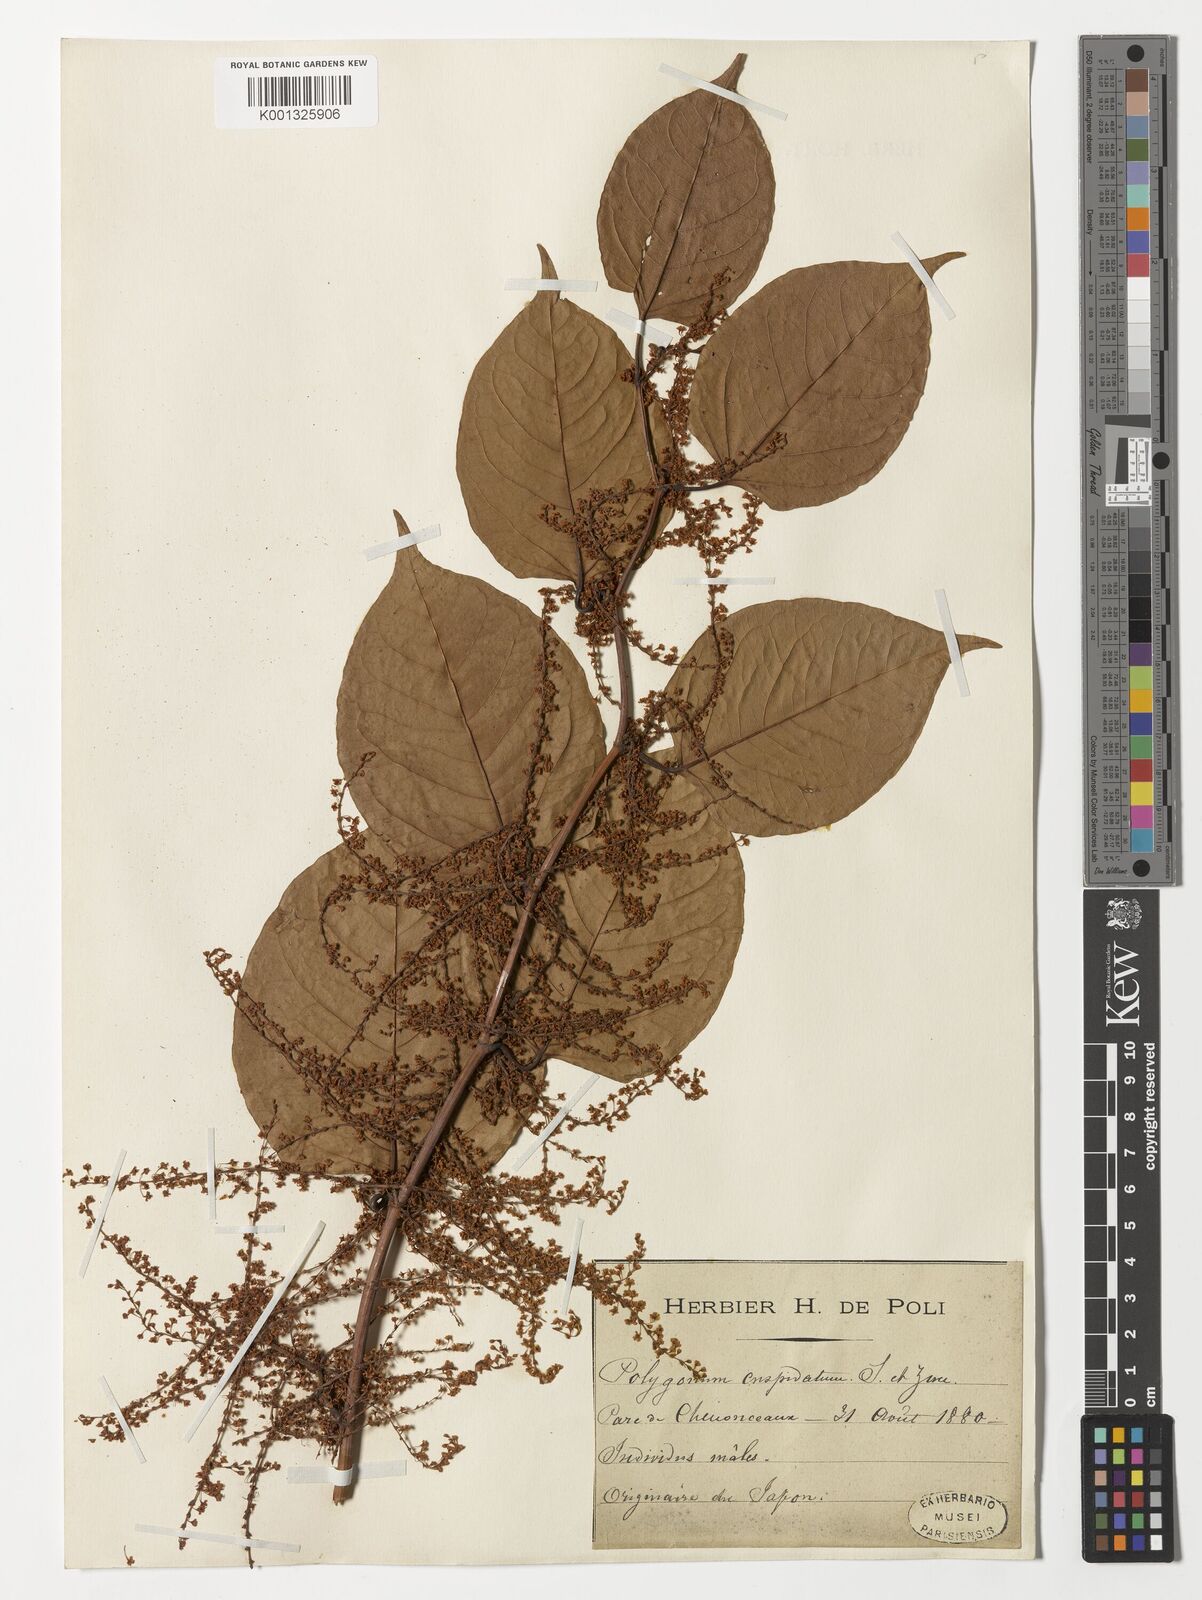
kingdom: Plantae
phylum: Tracheophyta
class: Magnoliopsida
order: Caryophyllales
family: Polygonaceae
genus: Reynoutria
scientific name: Reynoutria japonica
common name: Japanese knotweed
